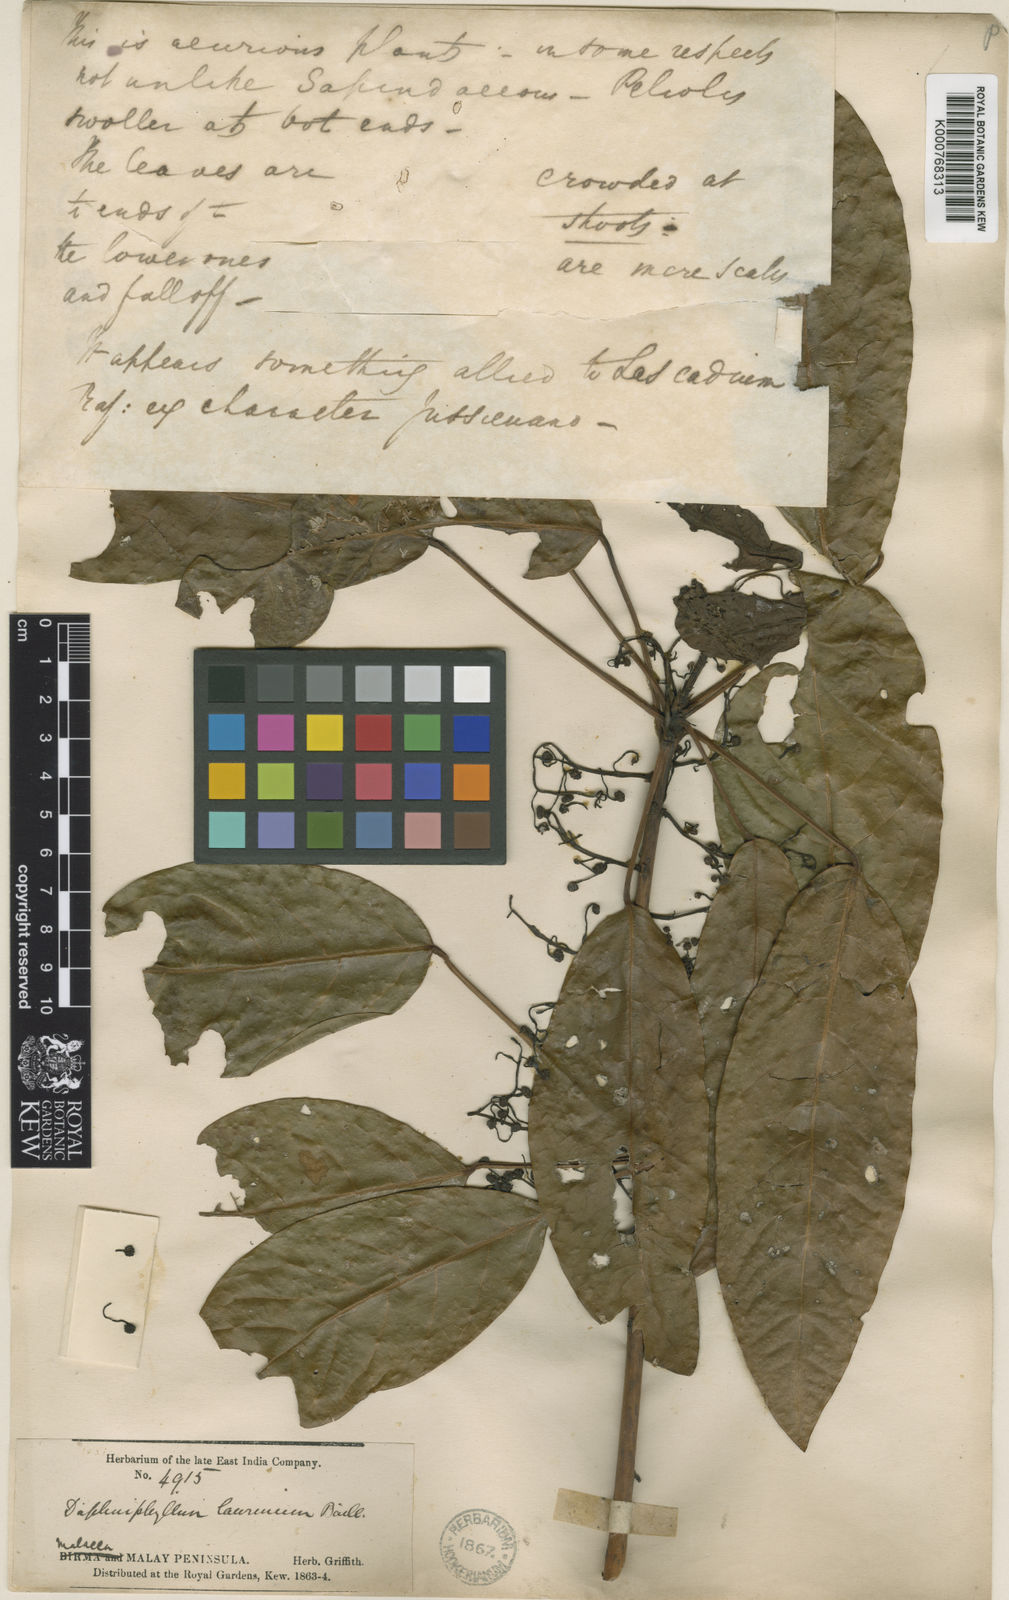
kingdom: Plantae
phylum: Tracheophyta
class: Magnoliopsida
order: Saxifragales
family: Daphniphyllaceae
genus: Daphniphyllum
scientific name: Daphniphyllum laurinum
